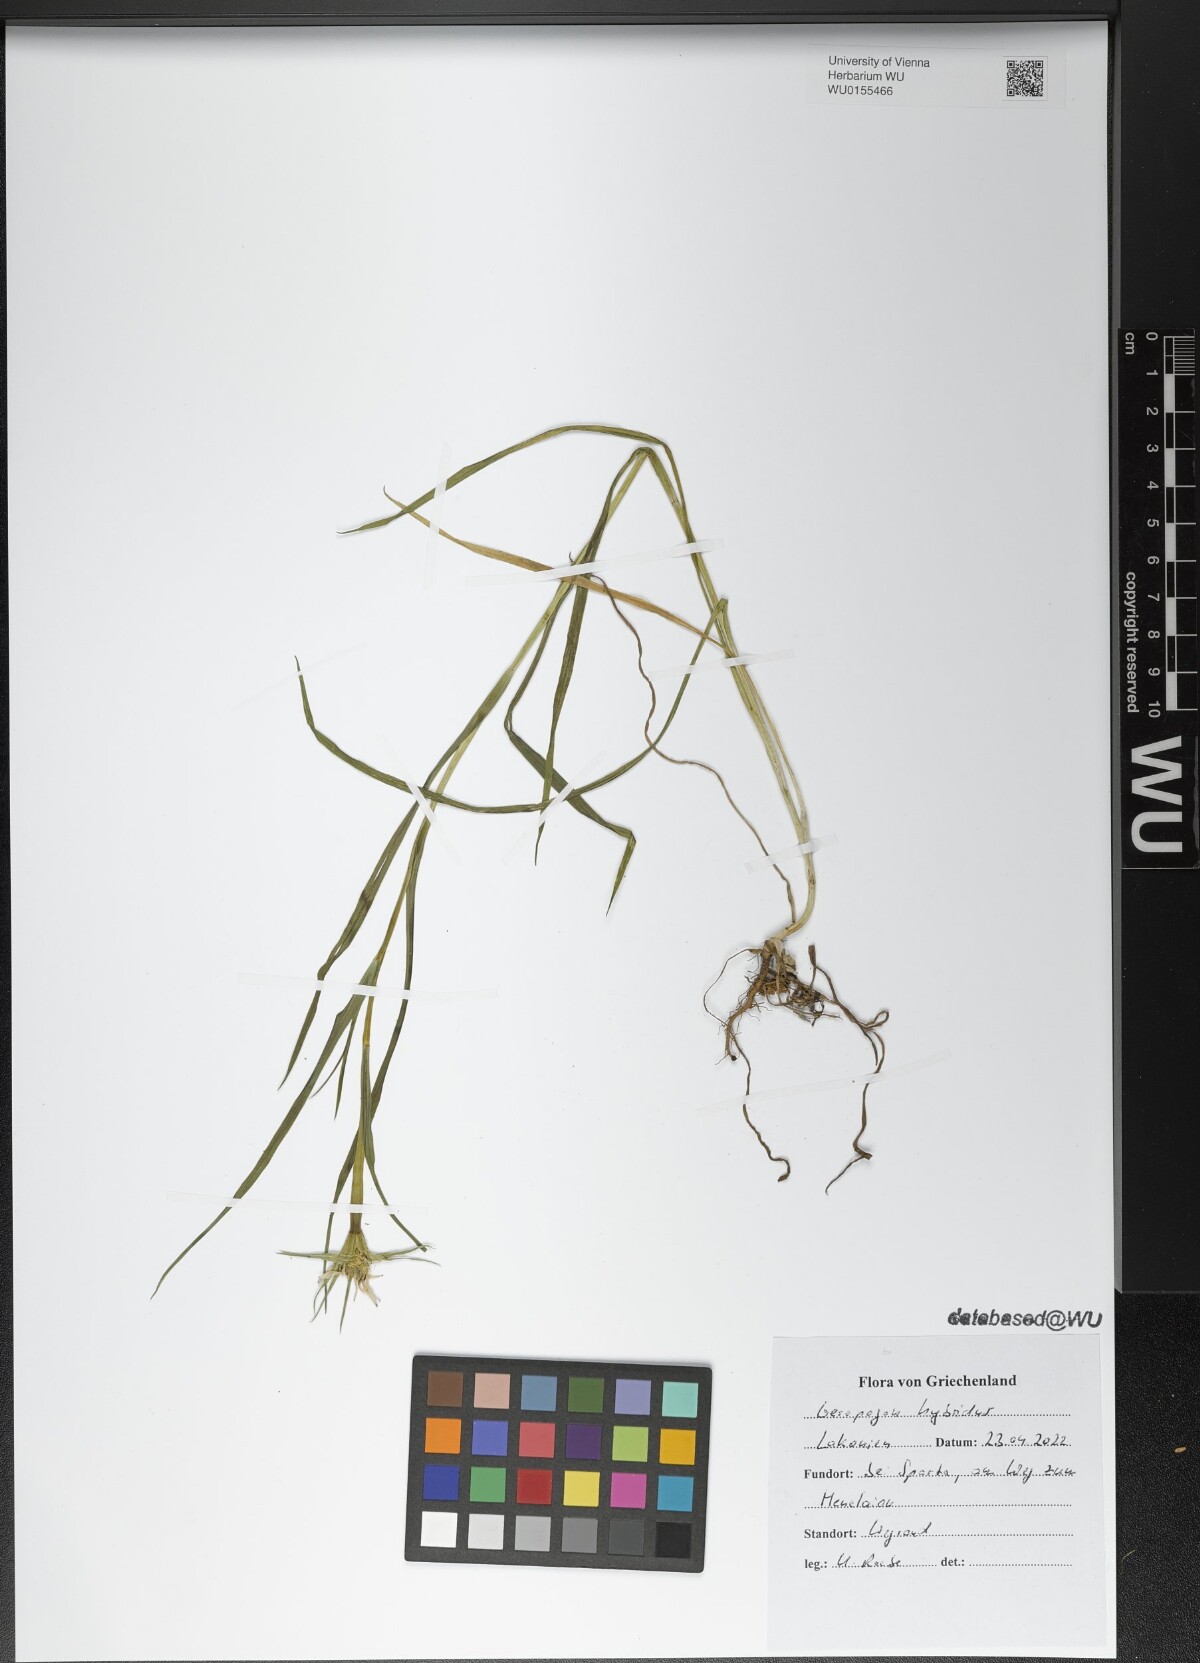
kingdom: Plantae
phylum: Tracheophyta
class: Magnoliopsida
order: Asterales
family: Asteraceae
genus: Geropogon
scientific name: Geropogon hybridus
